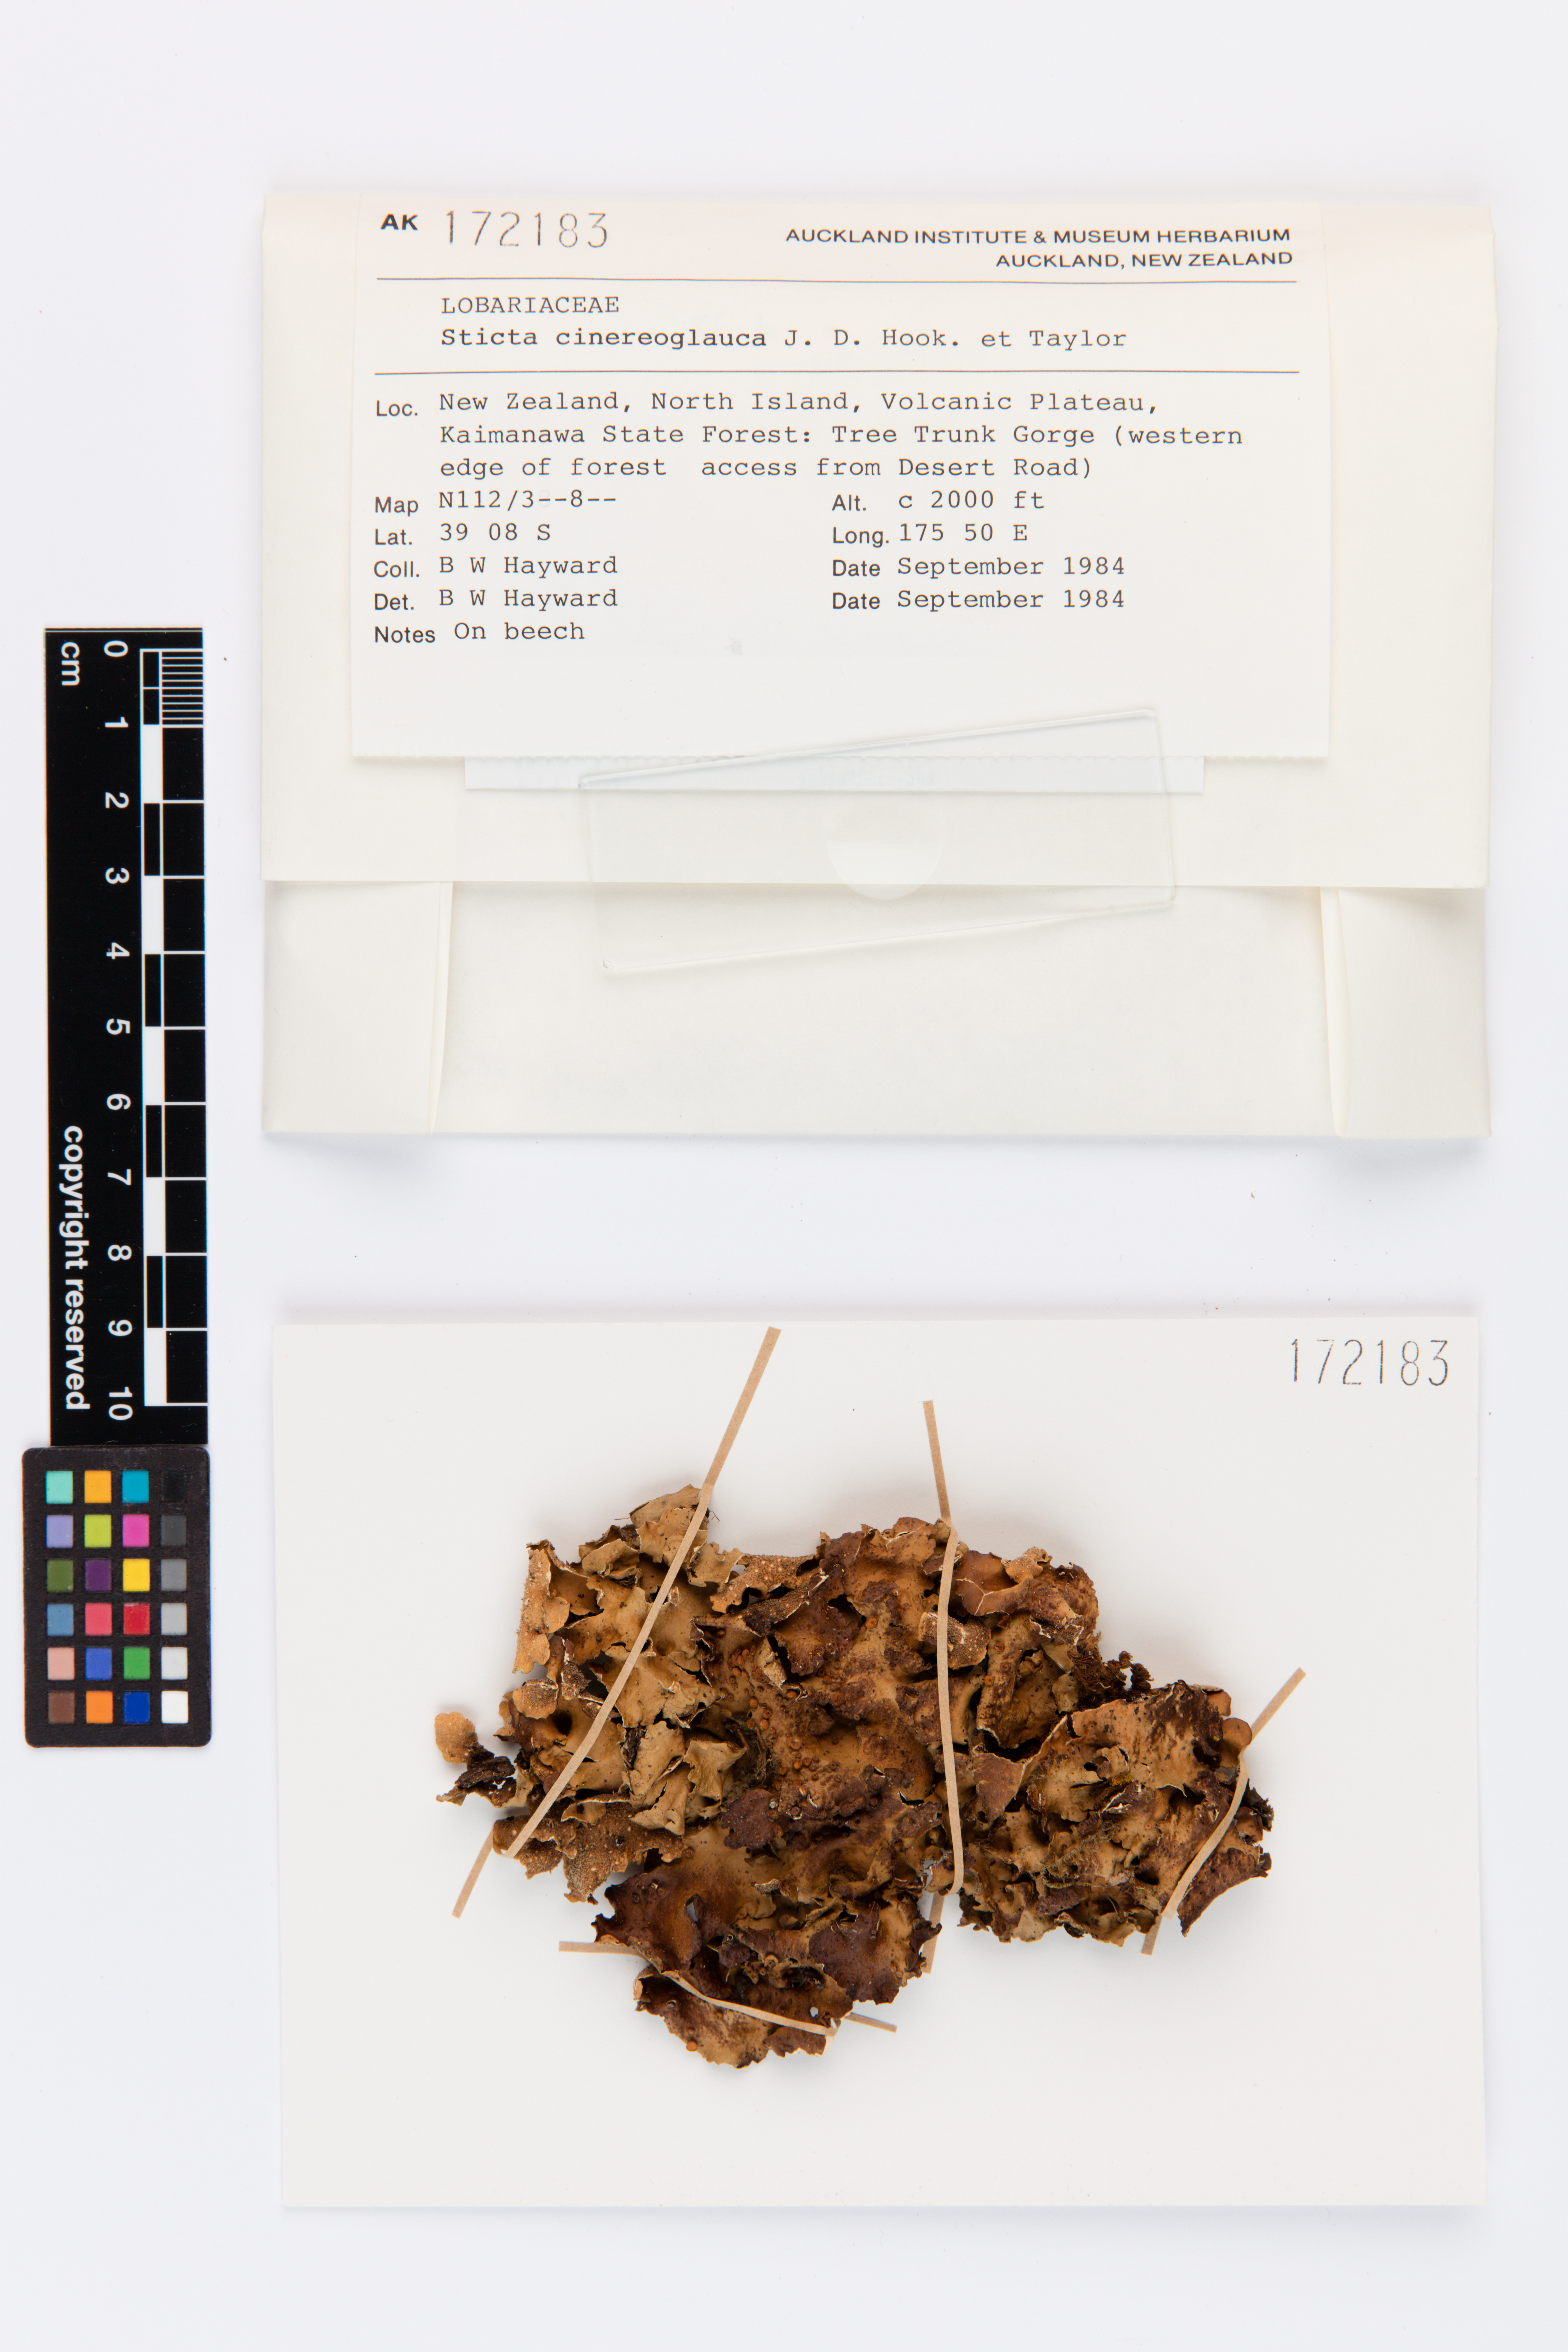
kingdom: Fungi
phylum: Ascomycota
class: Lecanoromycetes
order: Peltigerales
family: Lobariaceae
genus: Sticta
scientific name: Sticta cinereoglauca
